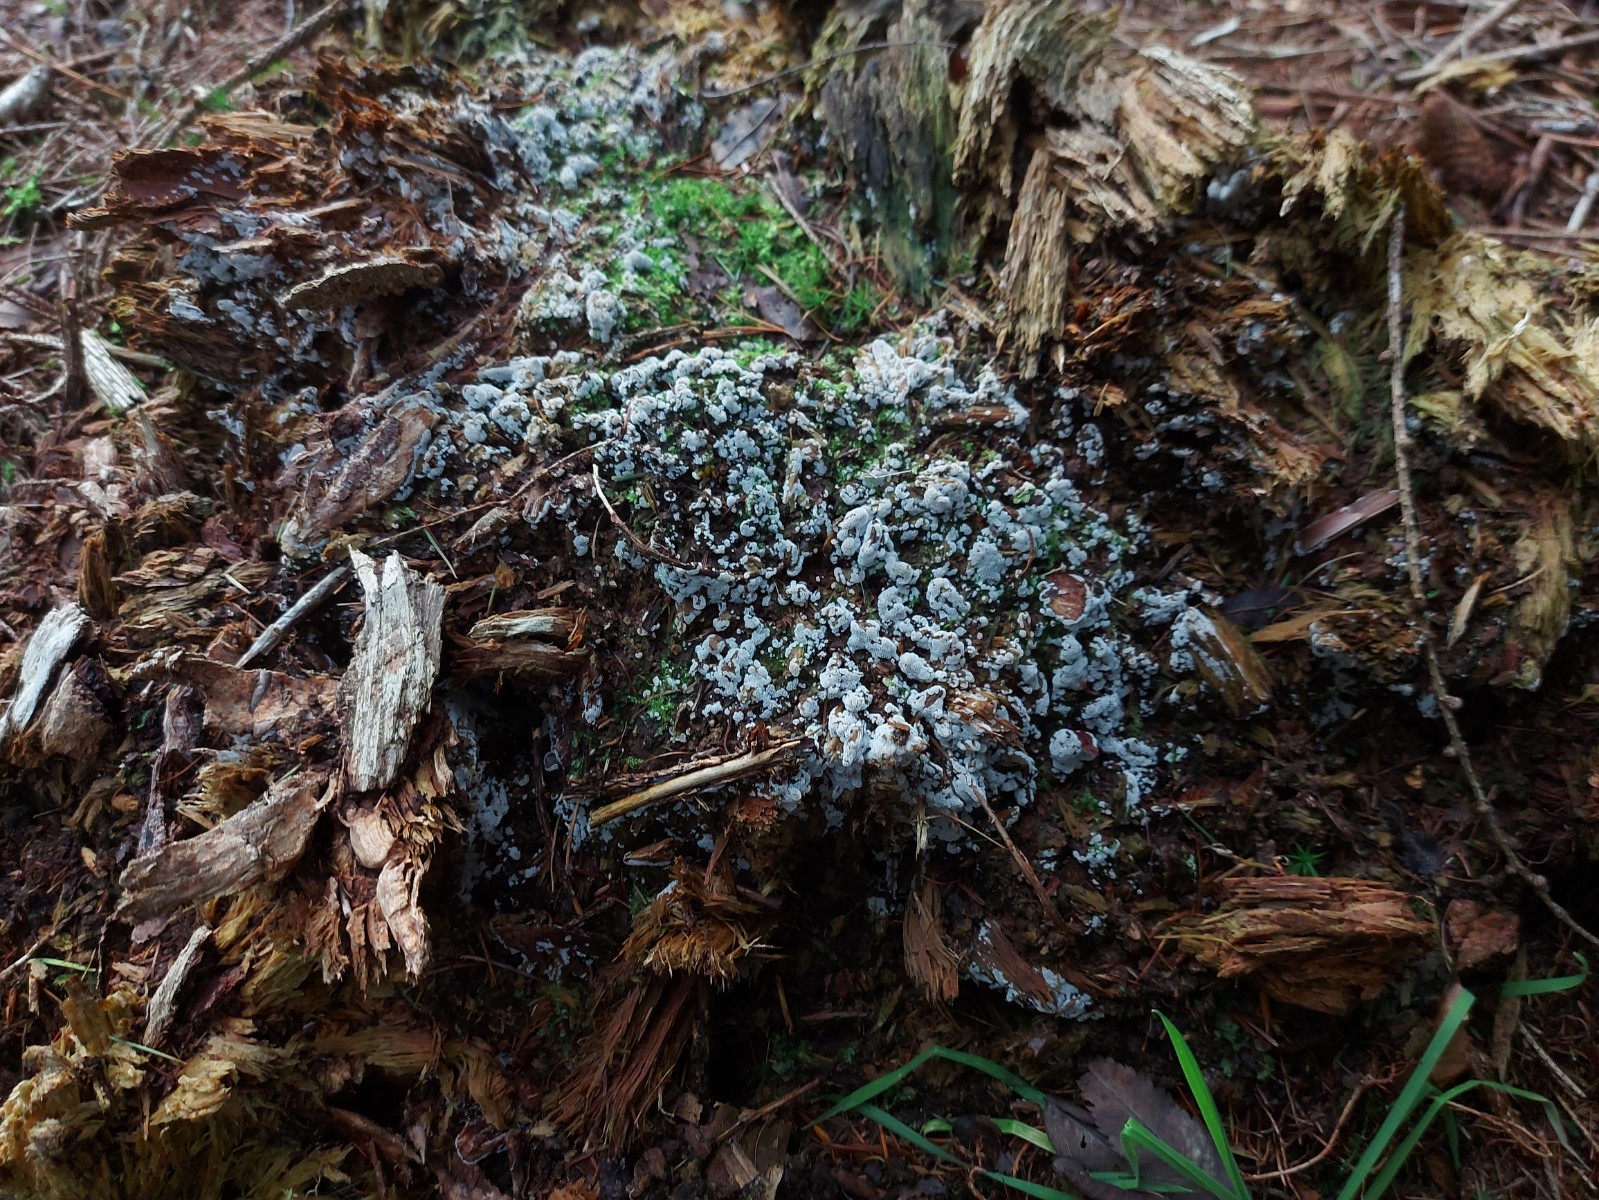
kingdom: Fungi
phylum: Basidiomycota
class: Agaricomycetes
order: Polyporales
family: Meripilaceae
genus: Rigidoporus
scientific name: Rigidoporus sanguinolentus
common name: blod-skorpeporesvamp
